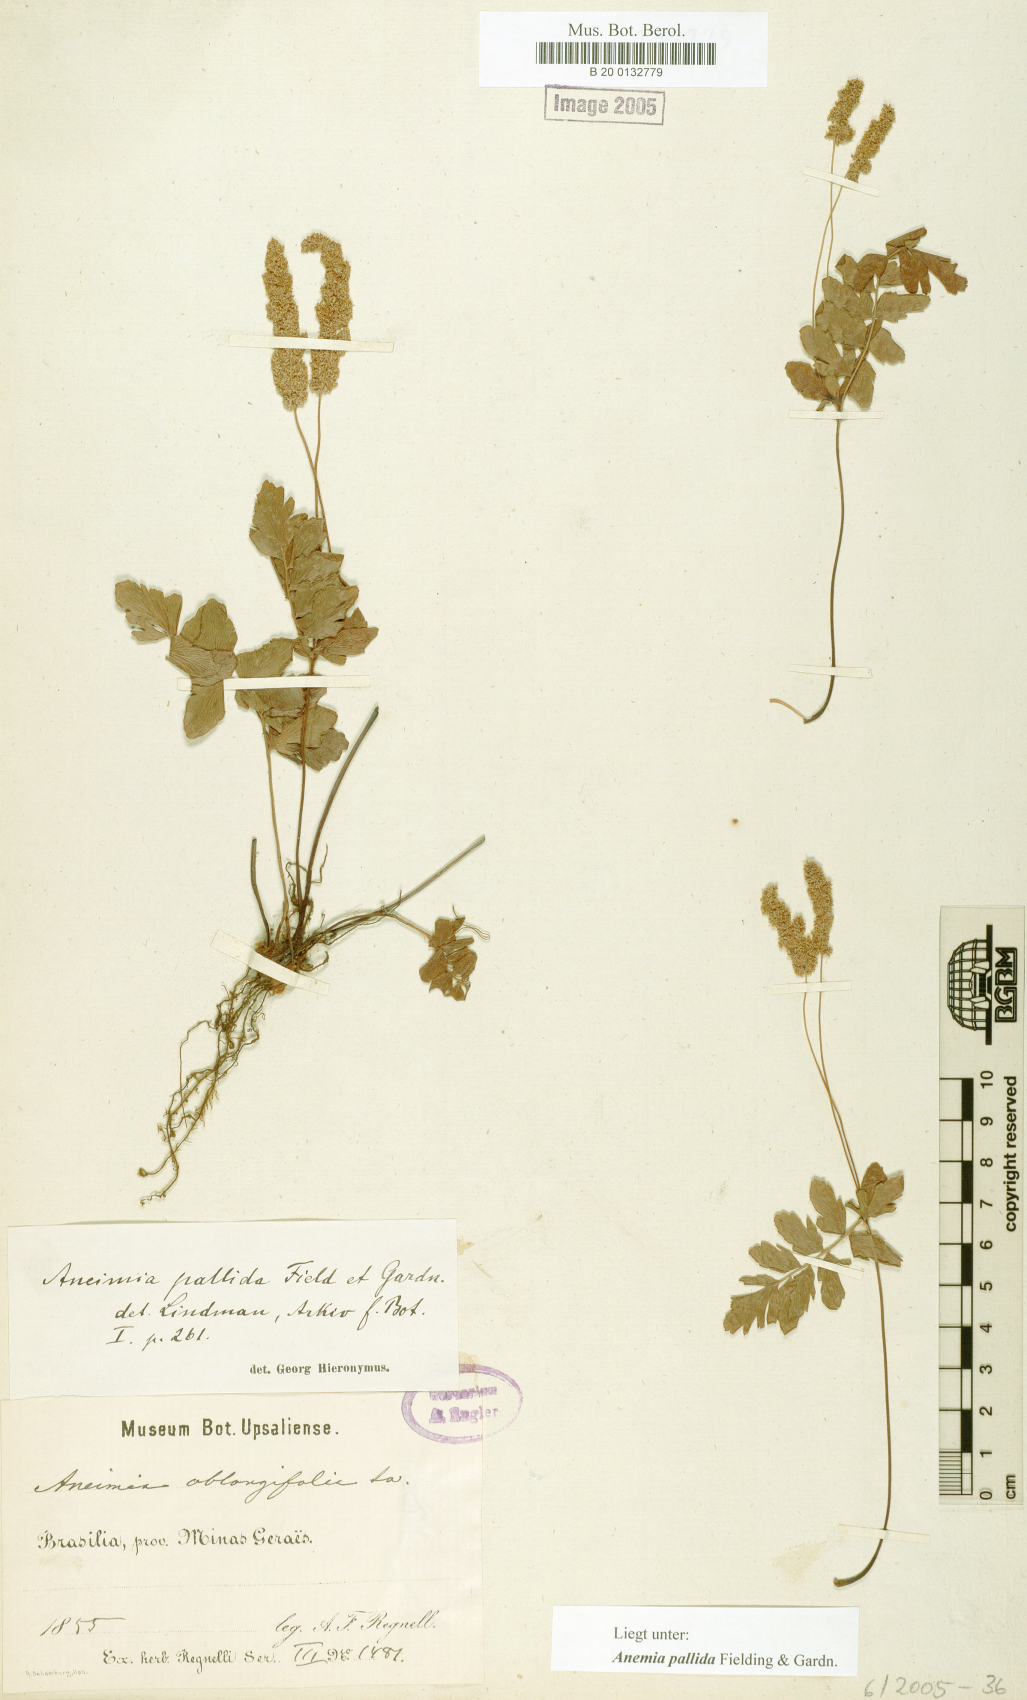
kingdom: Plantae
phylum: Tracheophyta
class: Polypodiopsida
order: Schizaeales
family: Anemiaceae
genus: Anemia
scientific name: Anemia hirsuta
